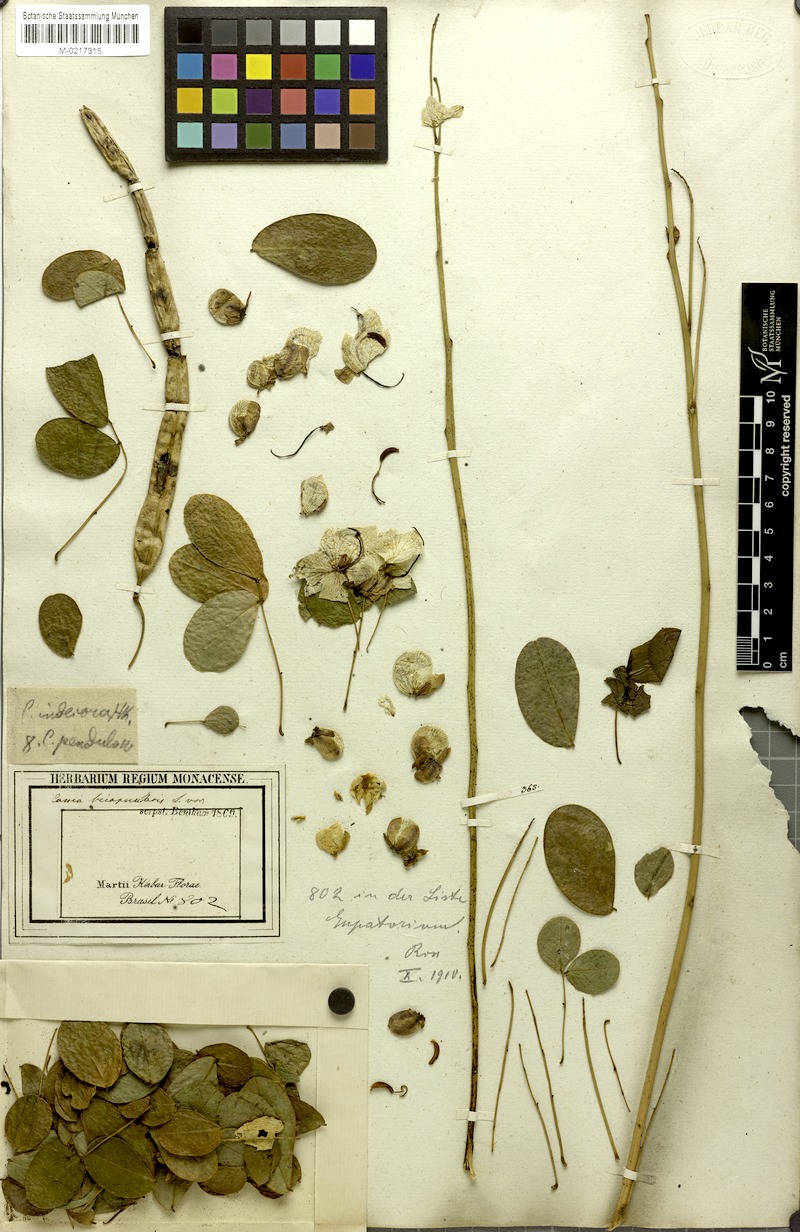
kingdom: Plantae
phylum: Tracheophyta
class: Magnoliopsida
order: Fabales
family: Fabaceae
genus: Senna
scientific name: Senna pendula
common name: Easter cassia
